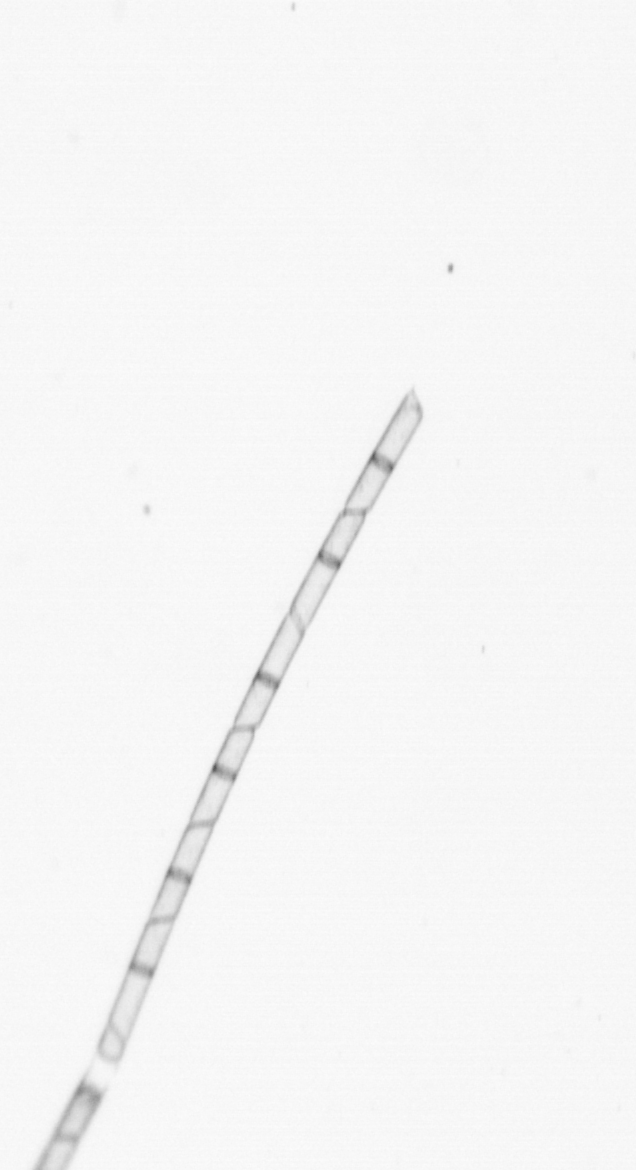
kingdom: Chromista
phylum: Ochrophyta
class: Bacillariophyceae
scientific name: Bacillariophyceae
